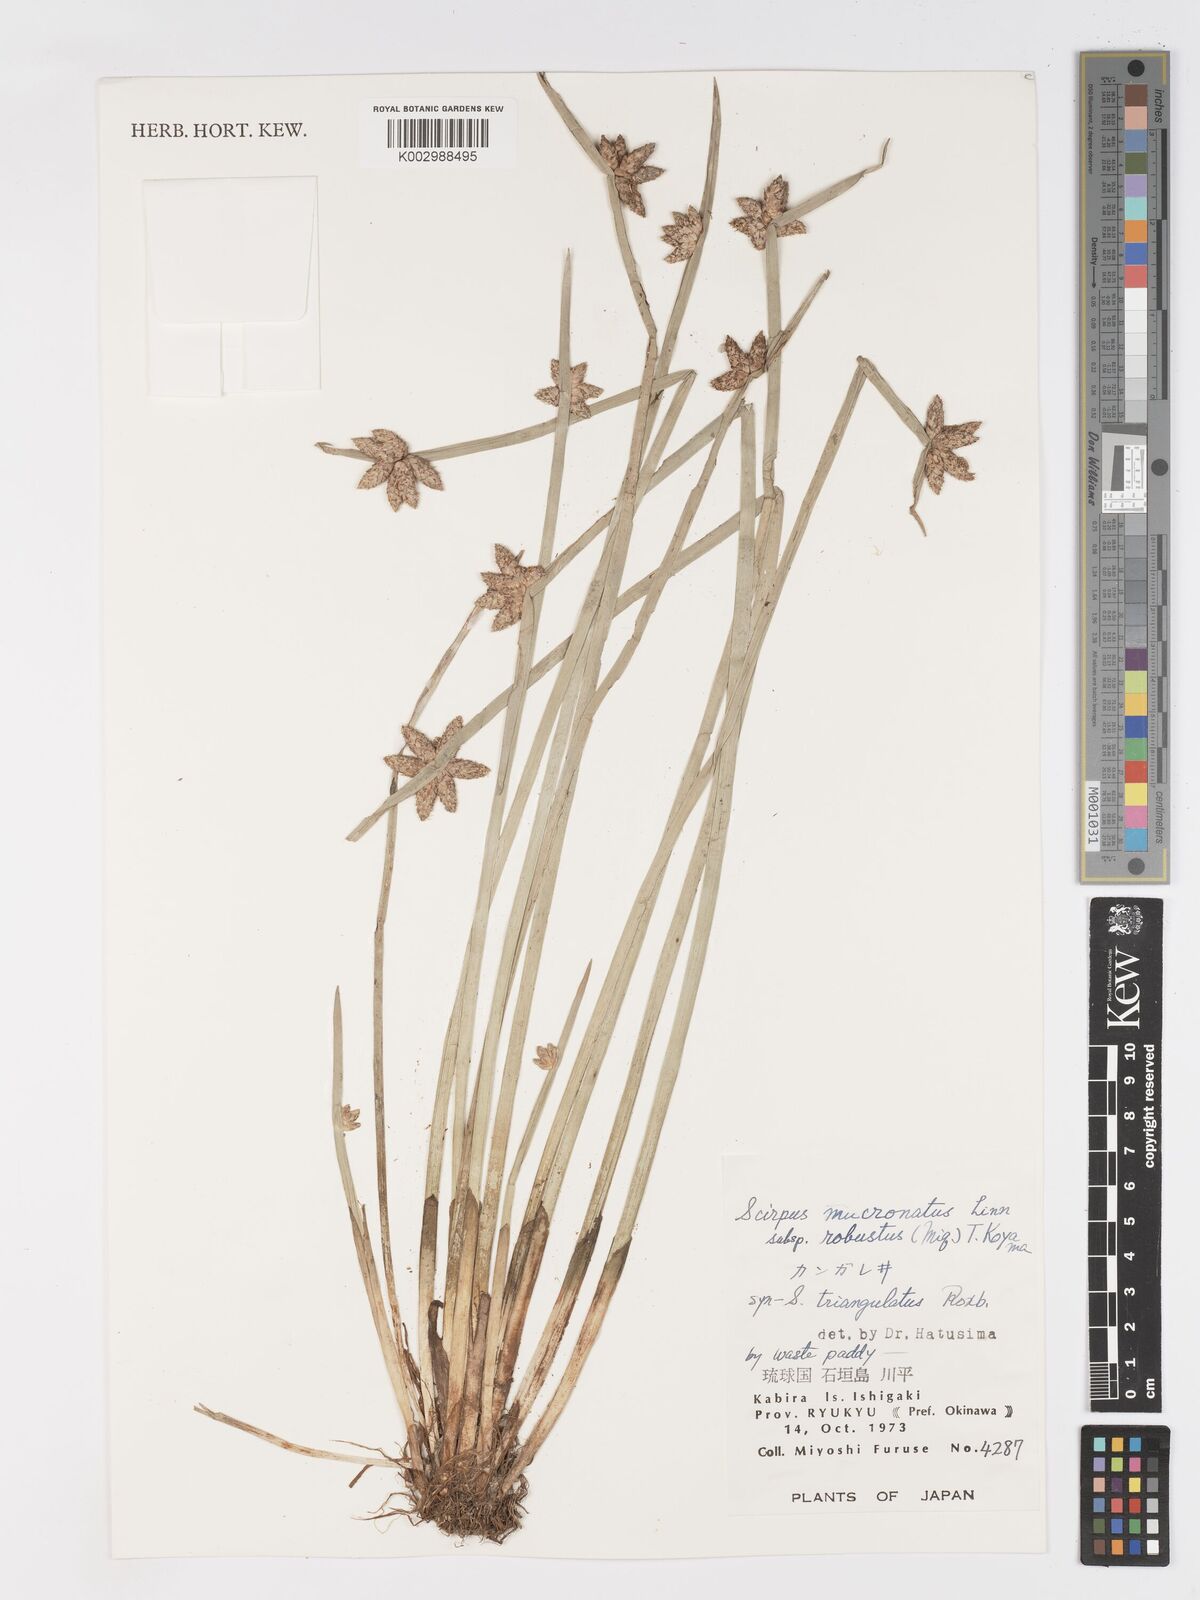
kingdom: Plantae
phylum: Tracheophyta
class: Liliopsida
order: Poales
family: Cyperaceae
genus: Schoenoplectiella
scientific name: Schoenoplectiella triangulata
